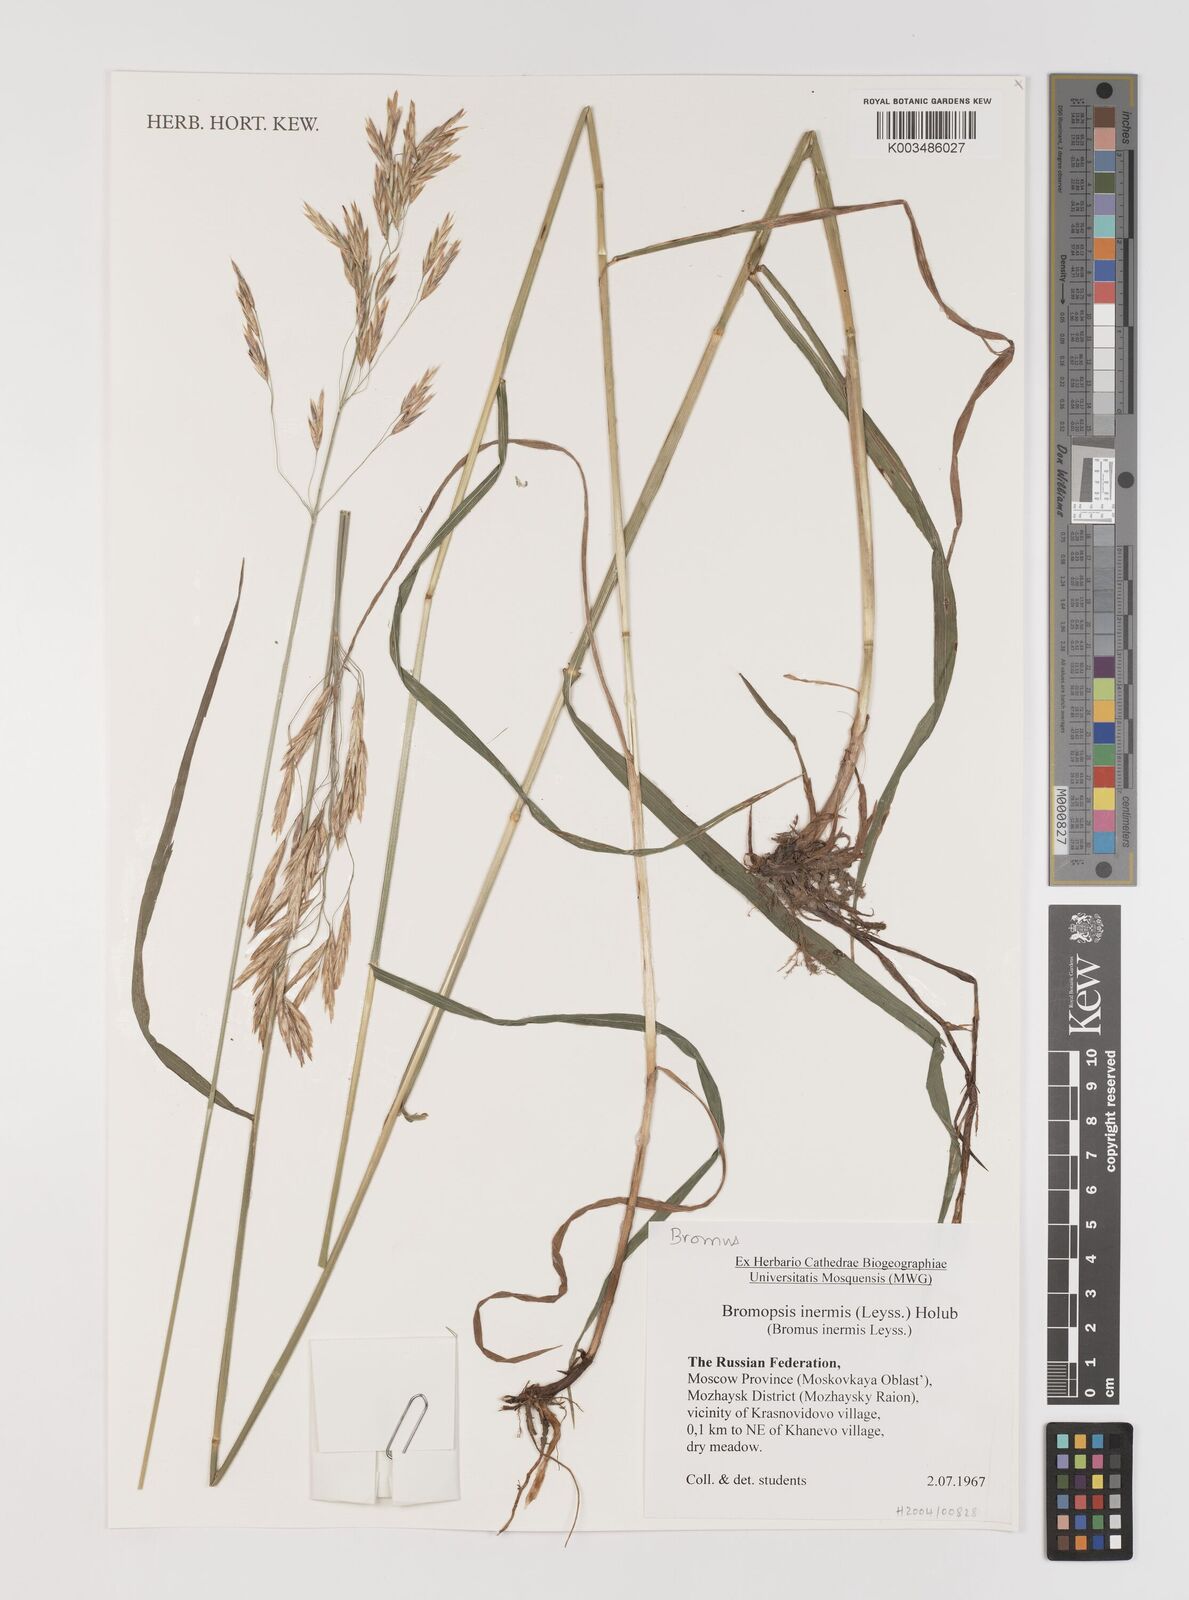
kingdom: Plantae
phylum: Tracheophyta
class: Liliopsida
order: Poales
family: Poaceae
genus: Bromus
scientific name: Bromus inermis
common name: Smooth brome
